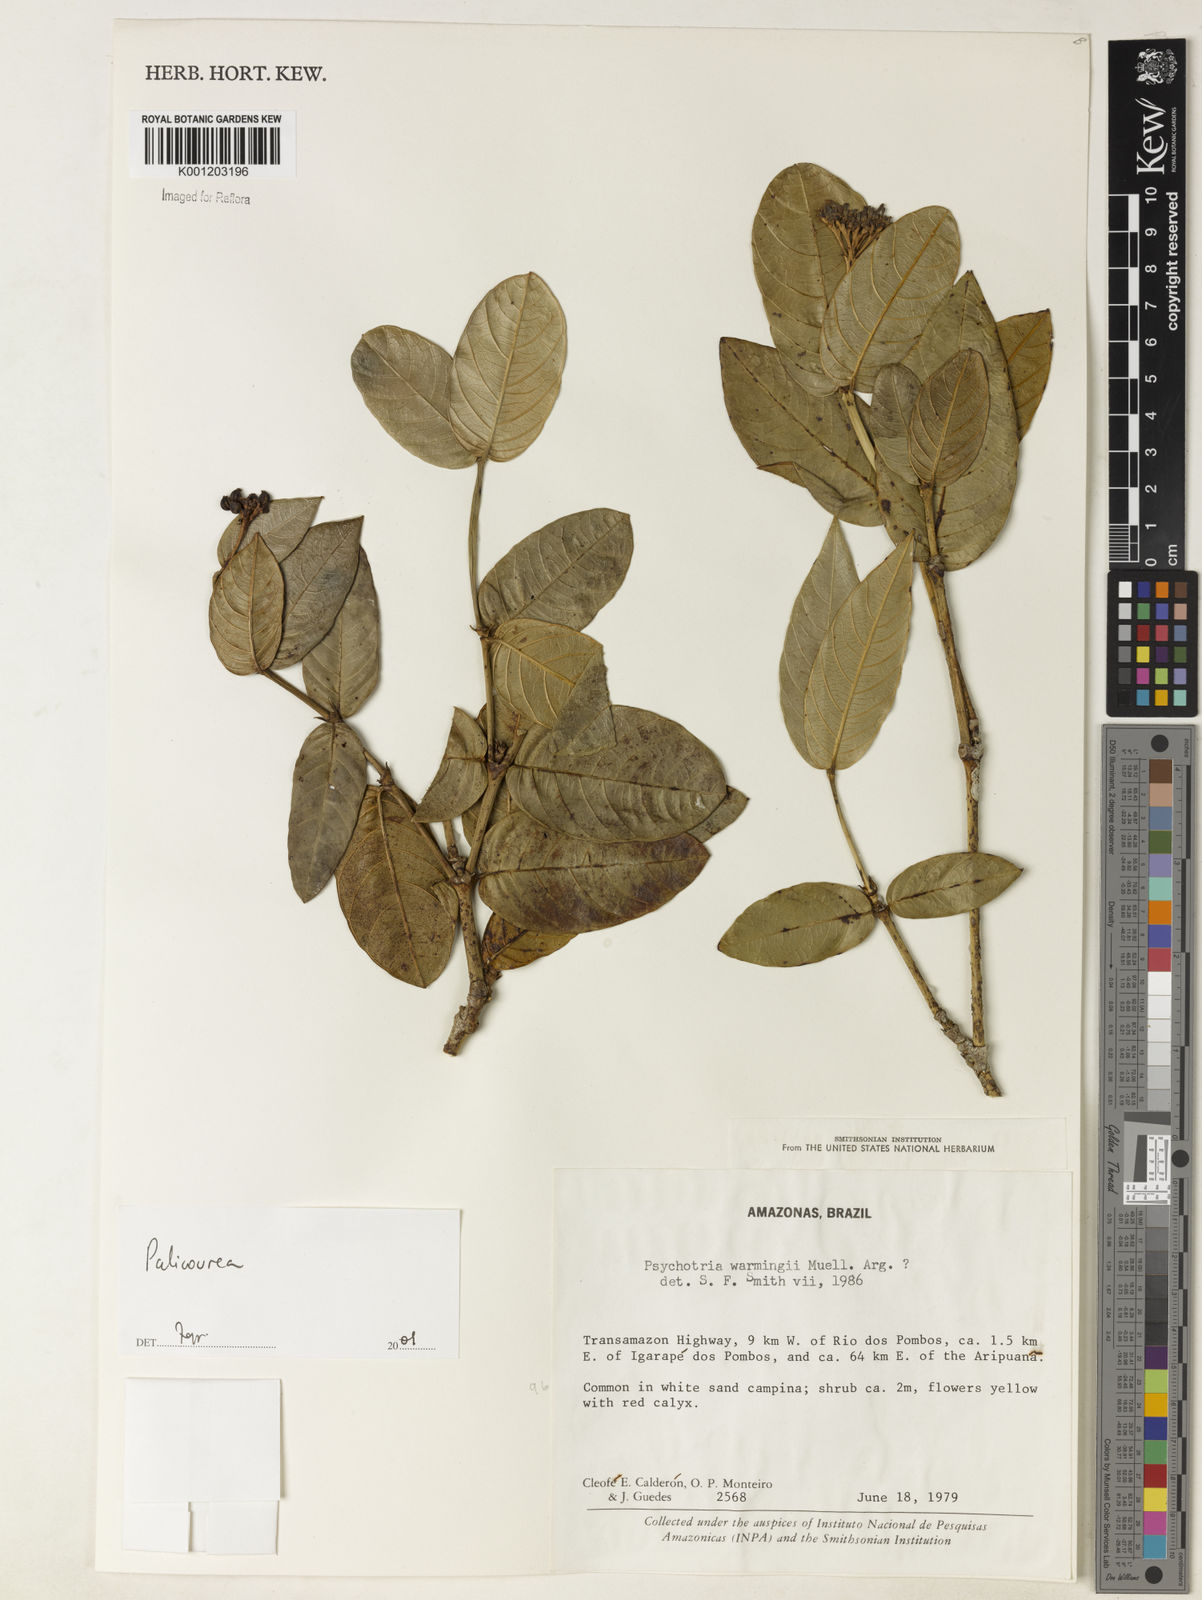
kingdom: Plantae
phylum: Tracheophyta
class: Magnoliopsida
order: Gentianales
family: Rubiaceae
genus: Palicourea
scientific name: Palicourea
